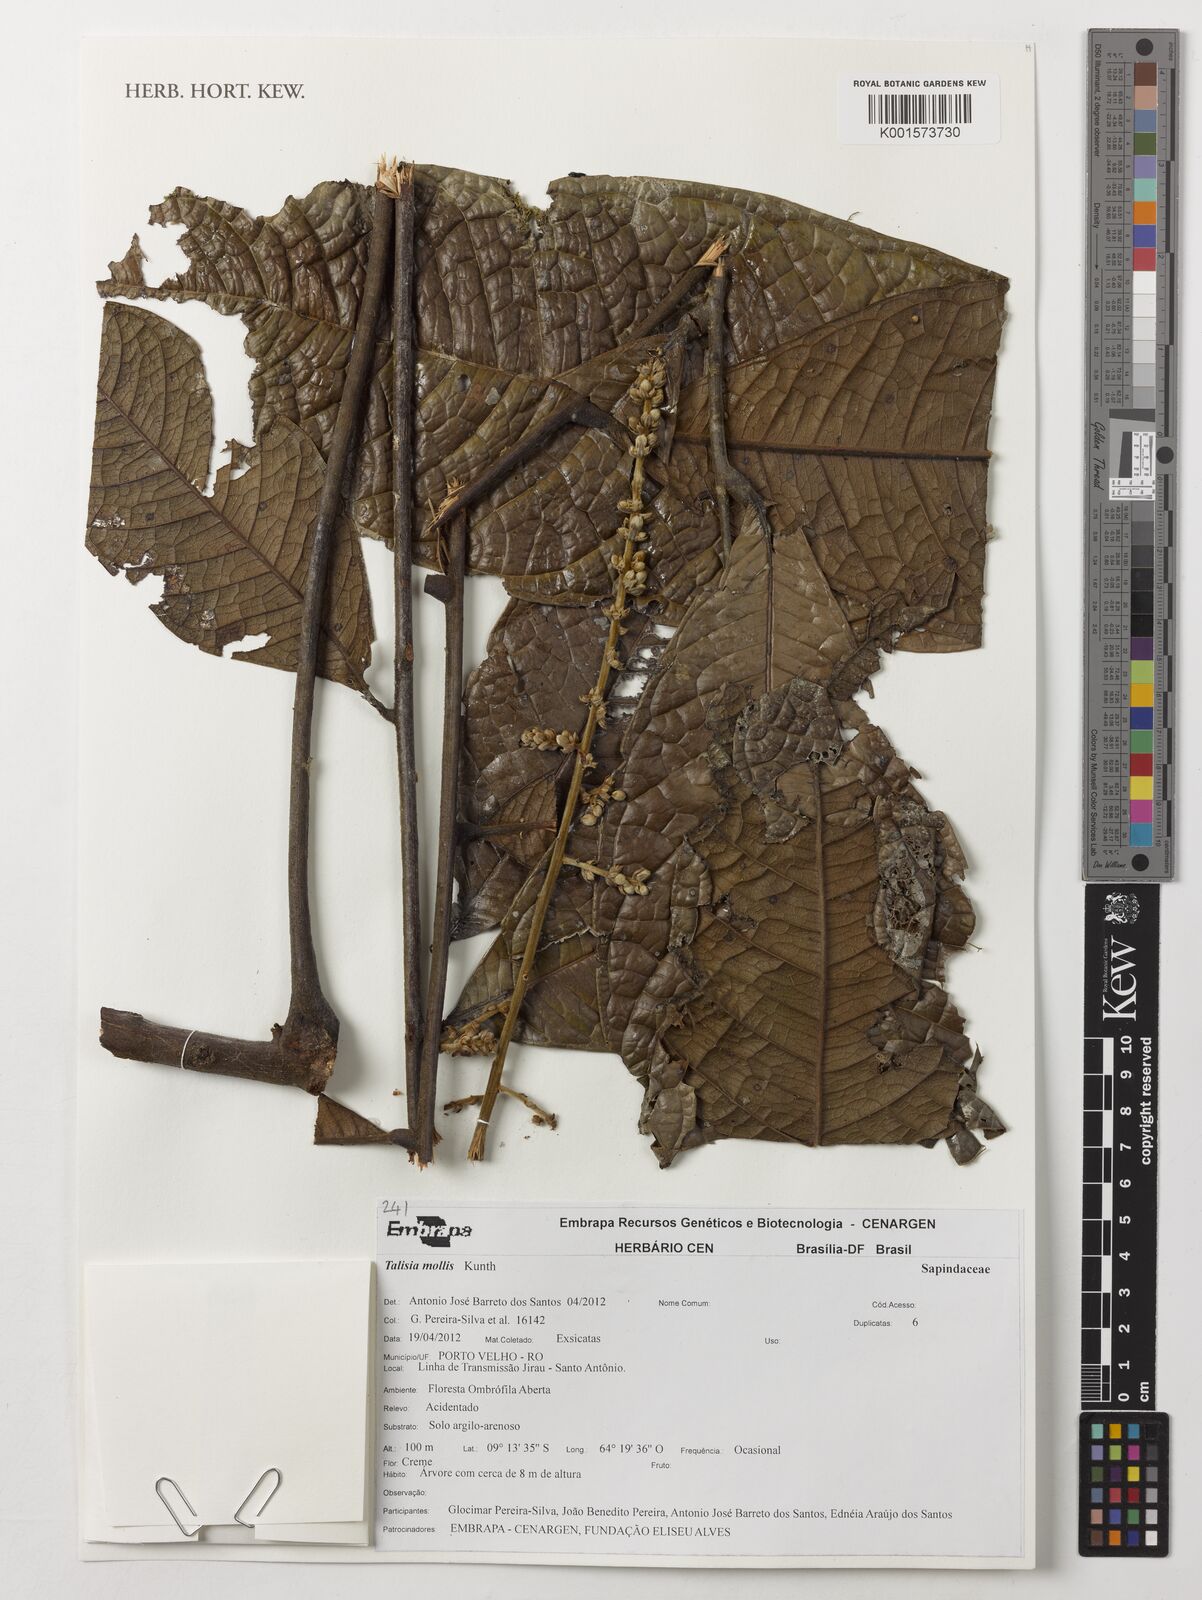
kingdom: Plantae
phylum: Tracheophyta
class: Magnoliopsida
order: Sapindales
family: Sapindaceae
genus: Talisia
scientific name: Talisia mollis
